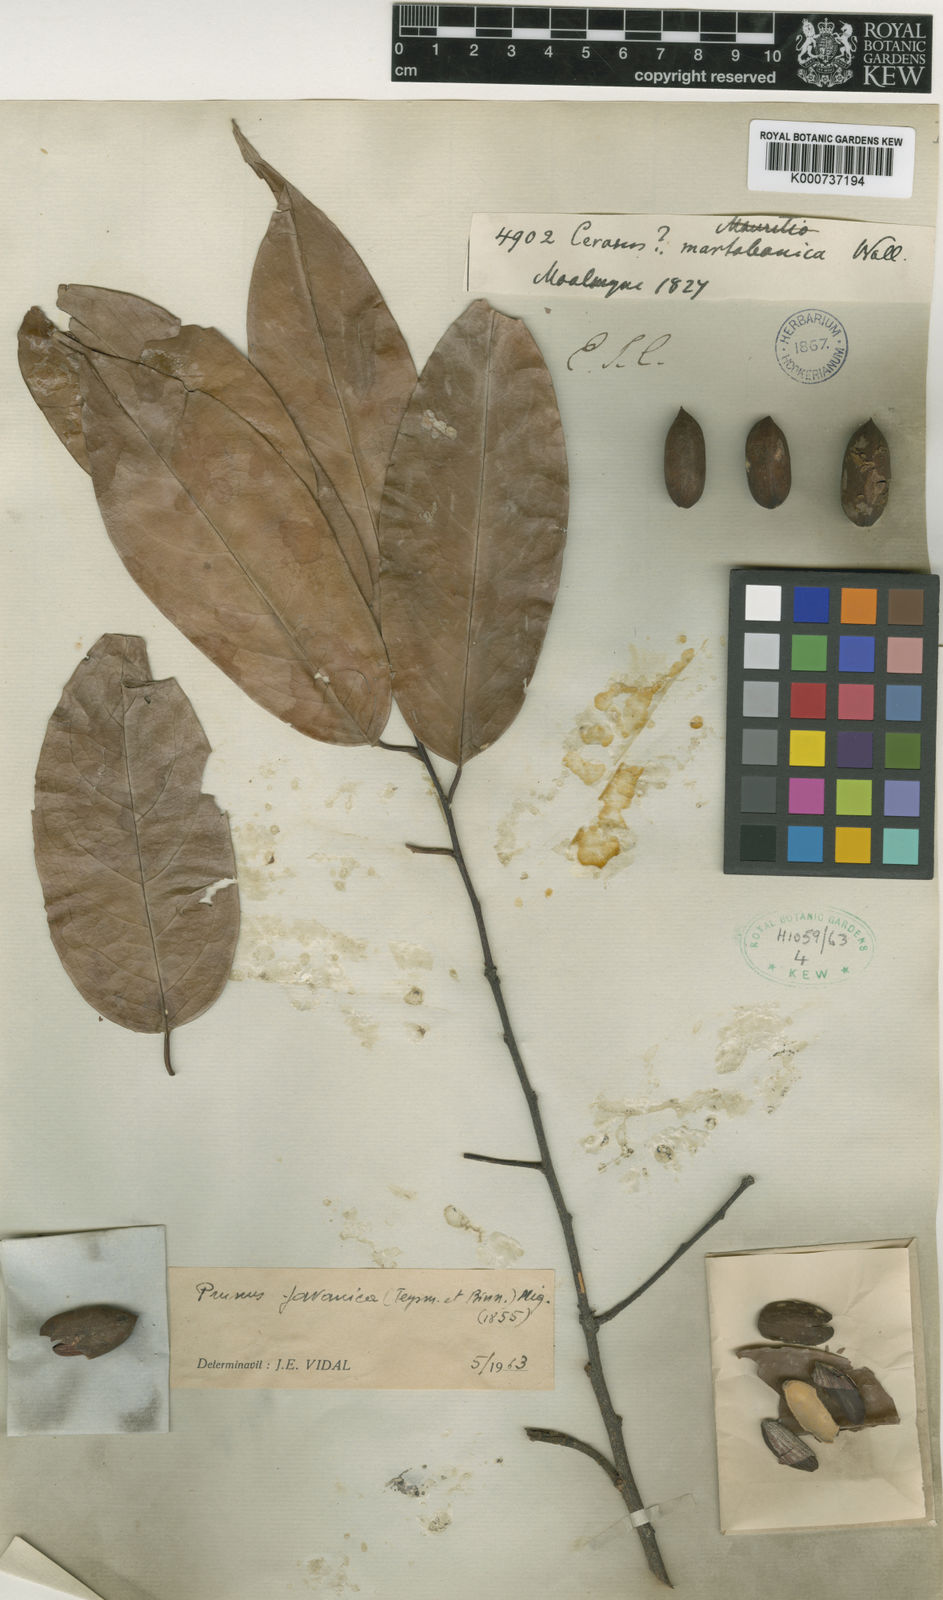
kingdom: Plantae
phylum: Tracheophyta
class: Magnoliopsida
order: Rosales
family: Rosaceae
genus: Prunus
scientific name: Prunus javanica
